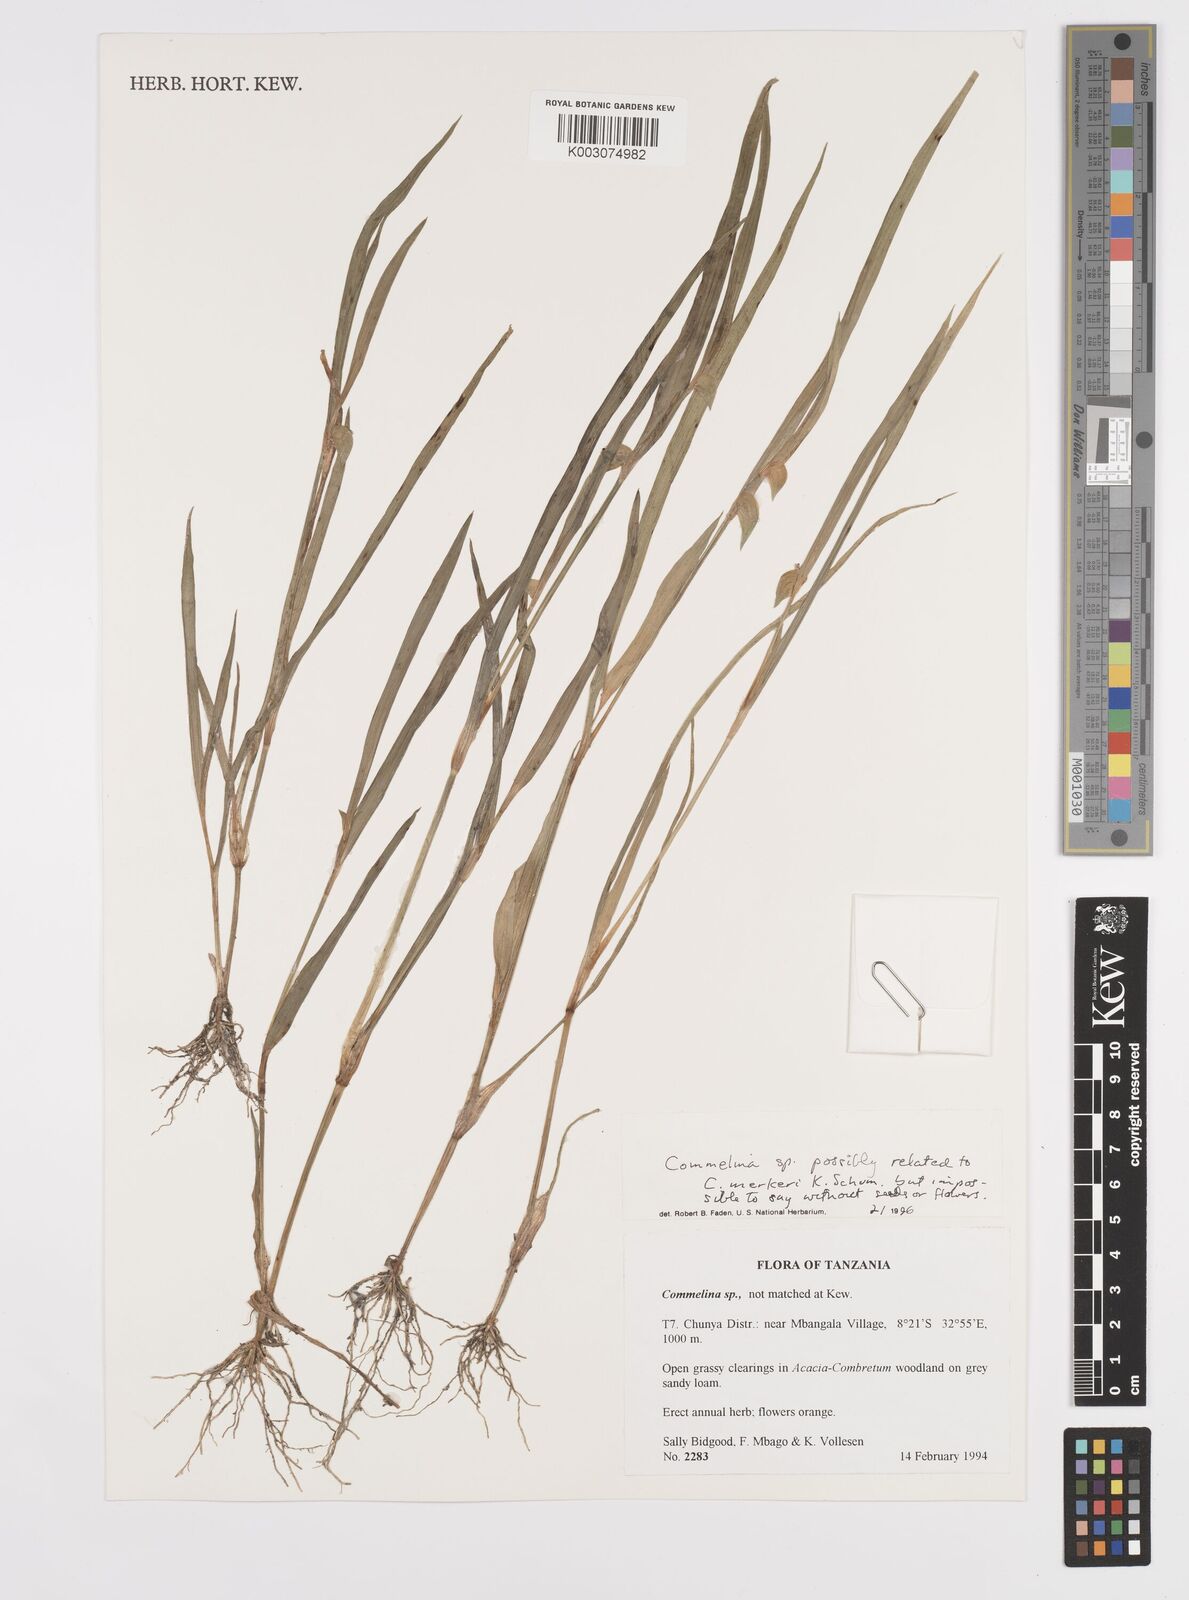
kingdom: Plantae
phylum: Tracheophyta
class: Liliopsida
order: Commelinales
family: Commelinaceae
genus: Commelina
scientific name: Commelina
